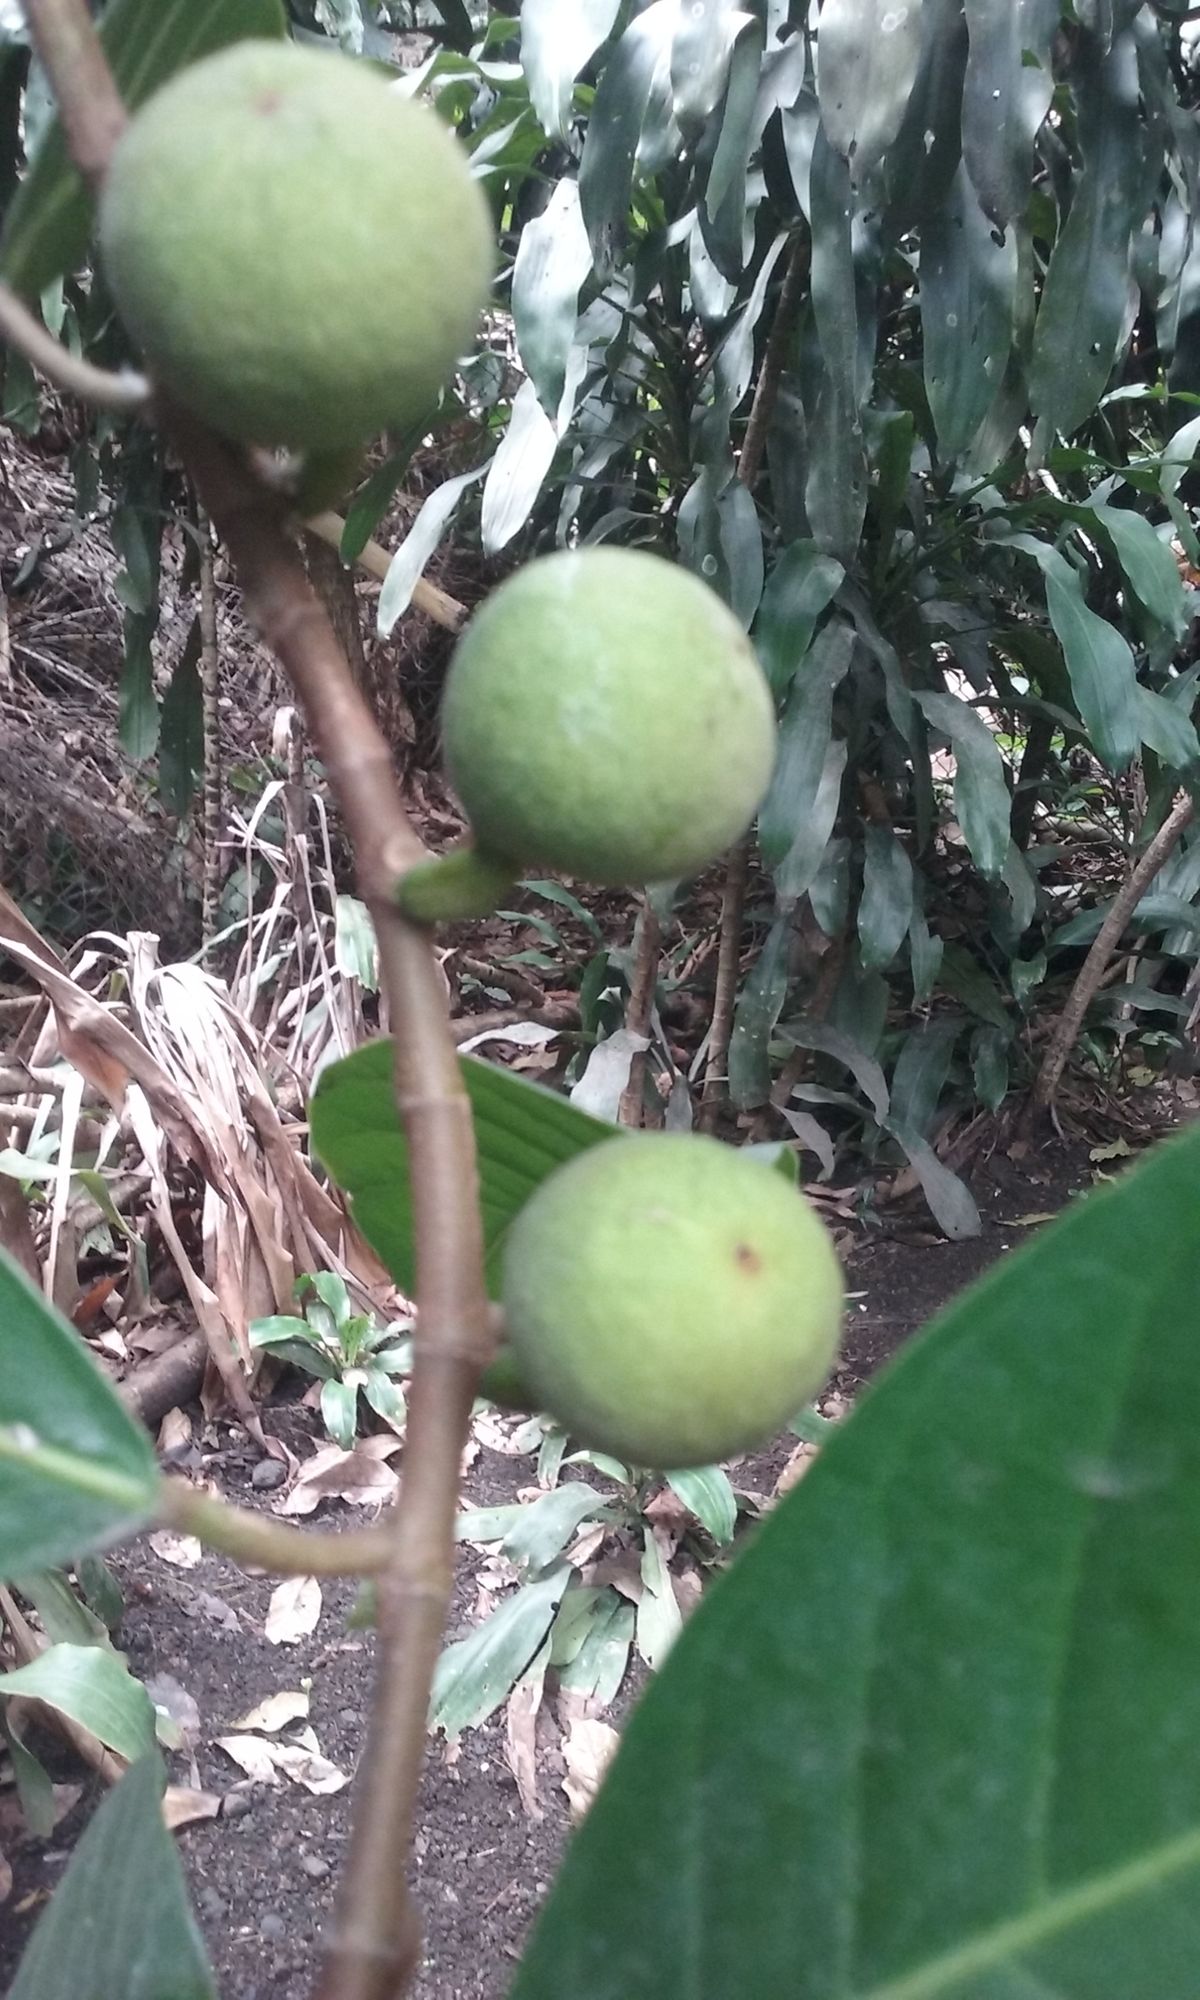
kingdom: Plantae
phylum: Tracheophyta
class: Magnoliopsida
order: Rosales
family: Moraceae
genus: Ficus
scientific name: Ficus maxima
